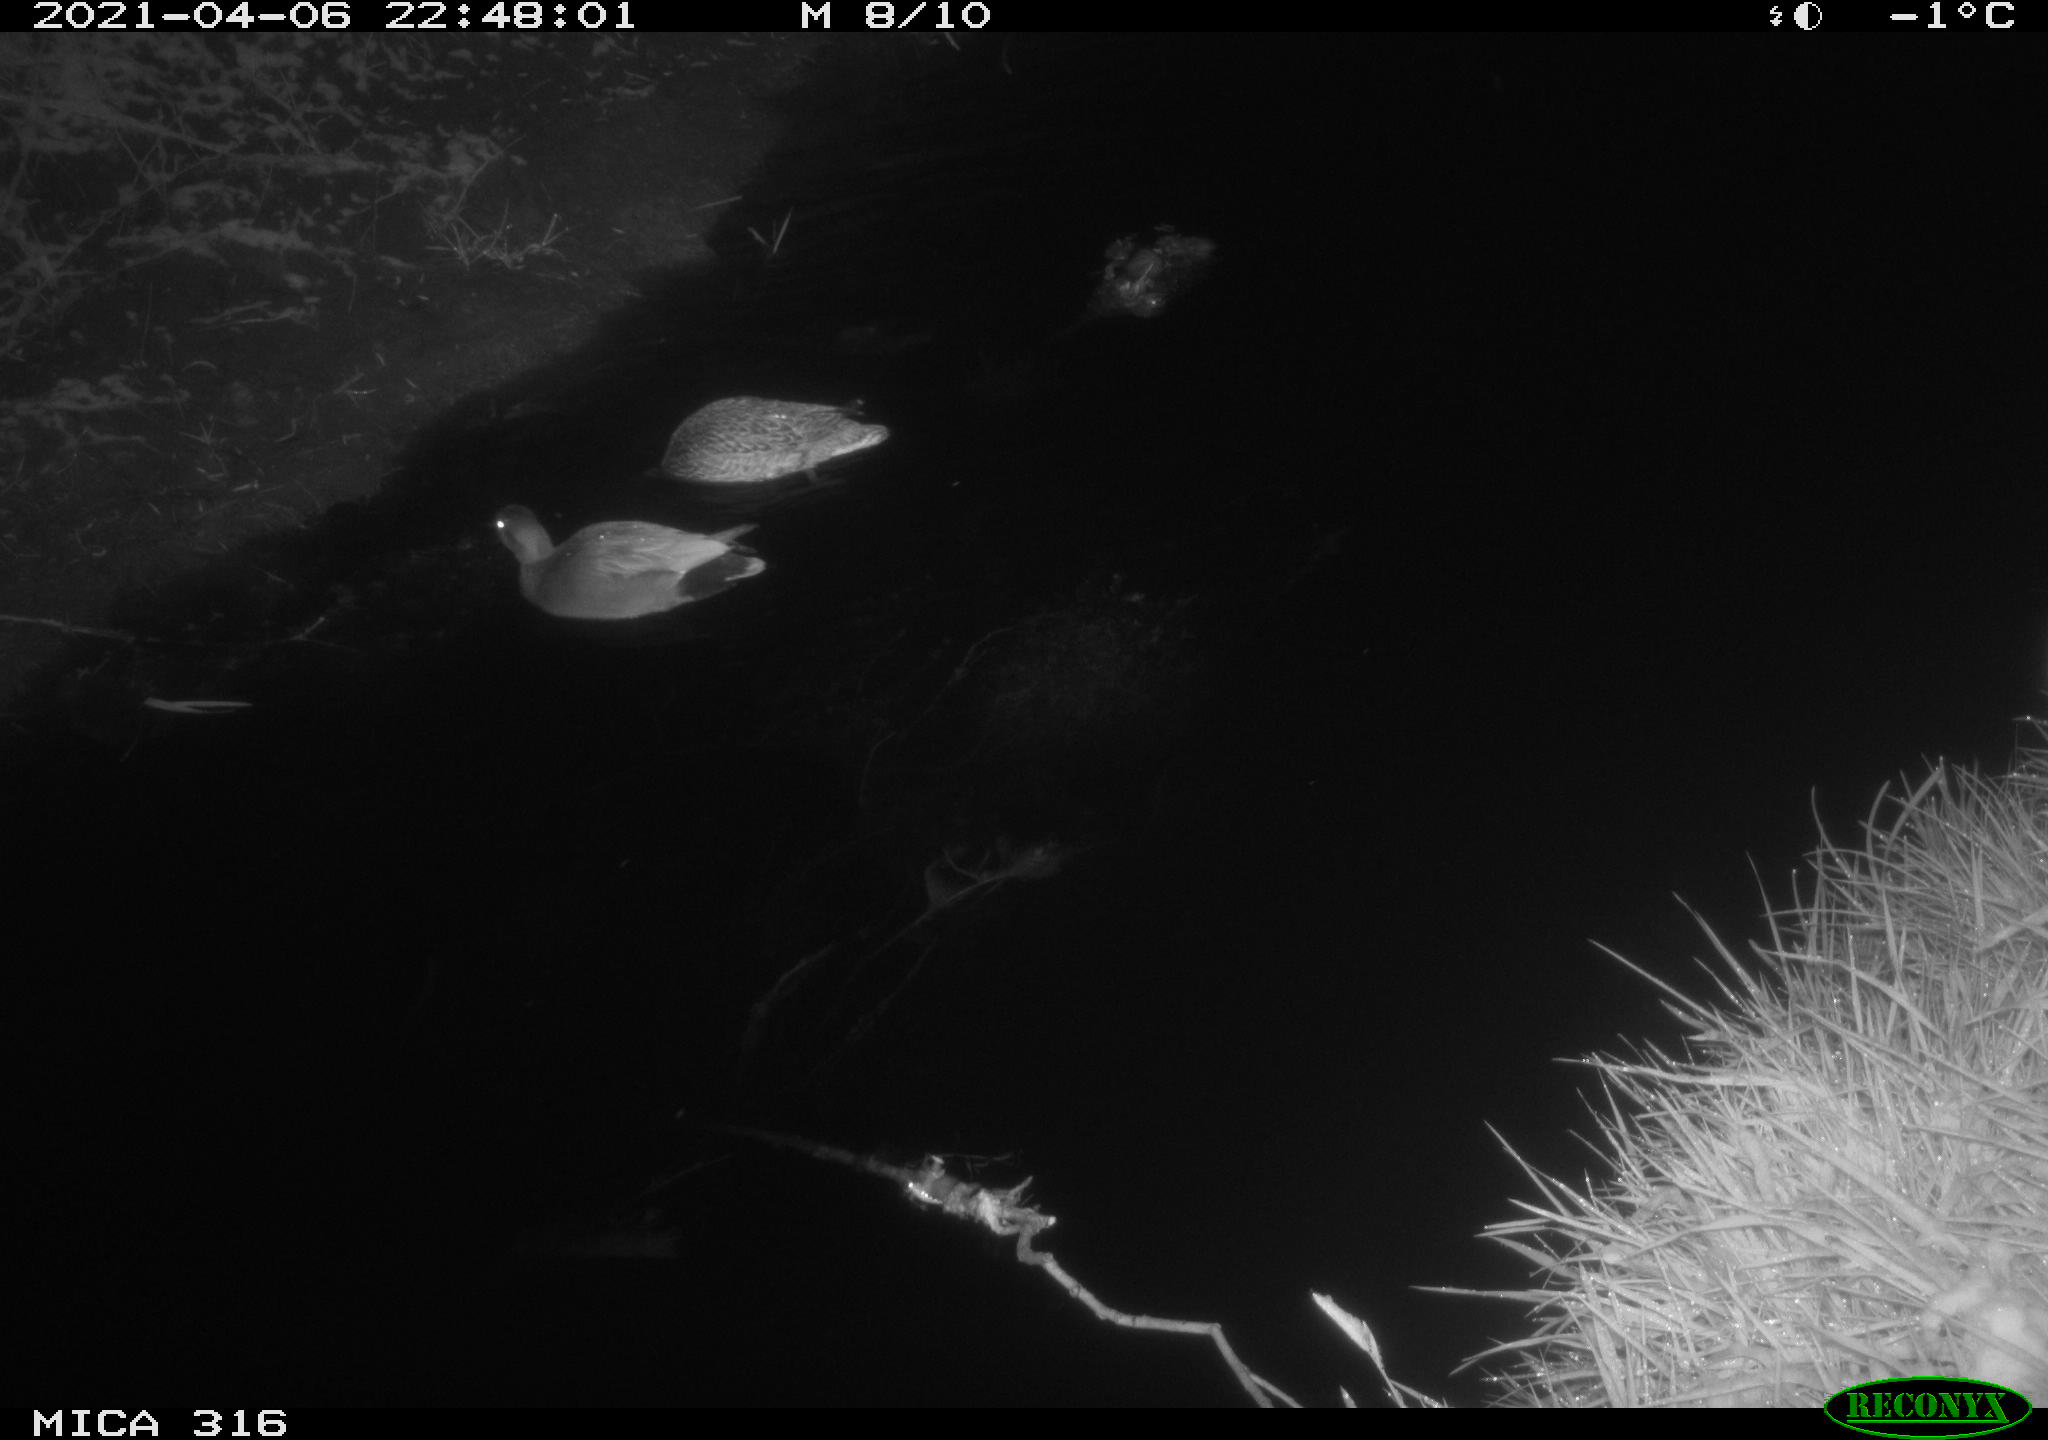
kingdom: Animalia
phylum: Chordata
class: Aves
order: Anseriformes
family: Anatidae
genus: Mareca
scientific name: Mareca strepera
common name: Gadwall
